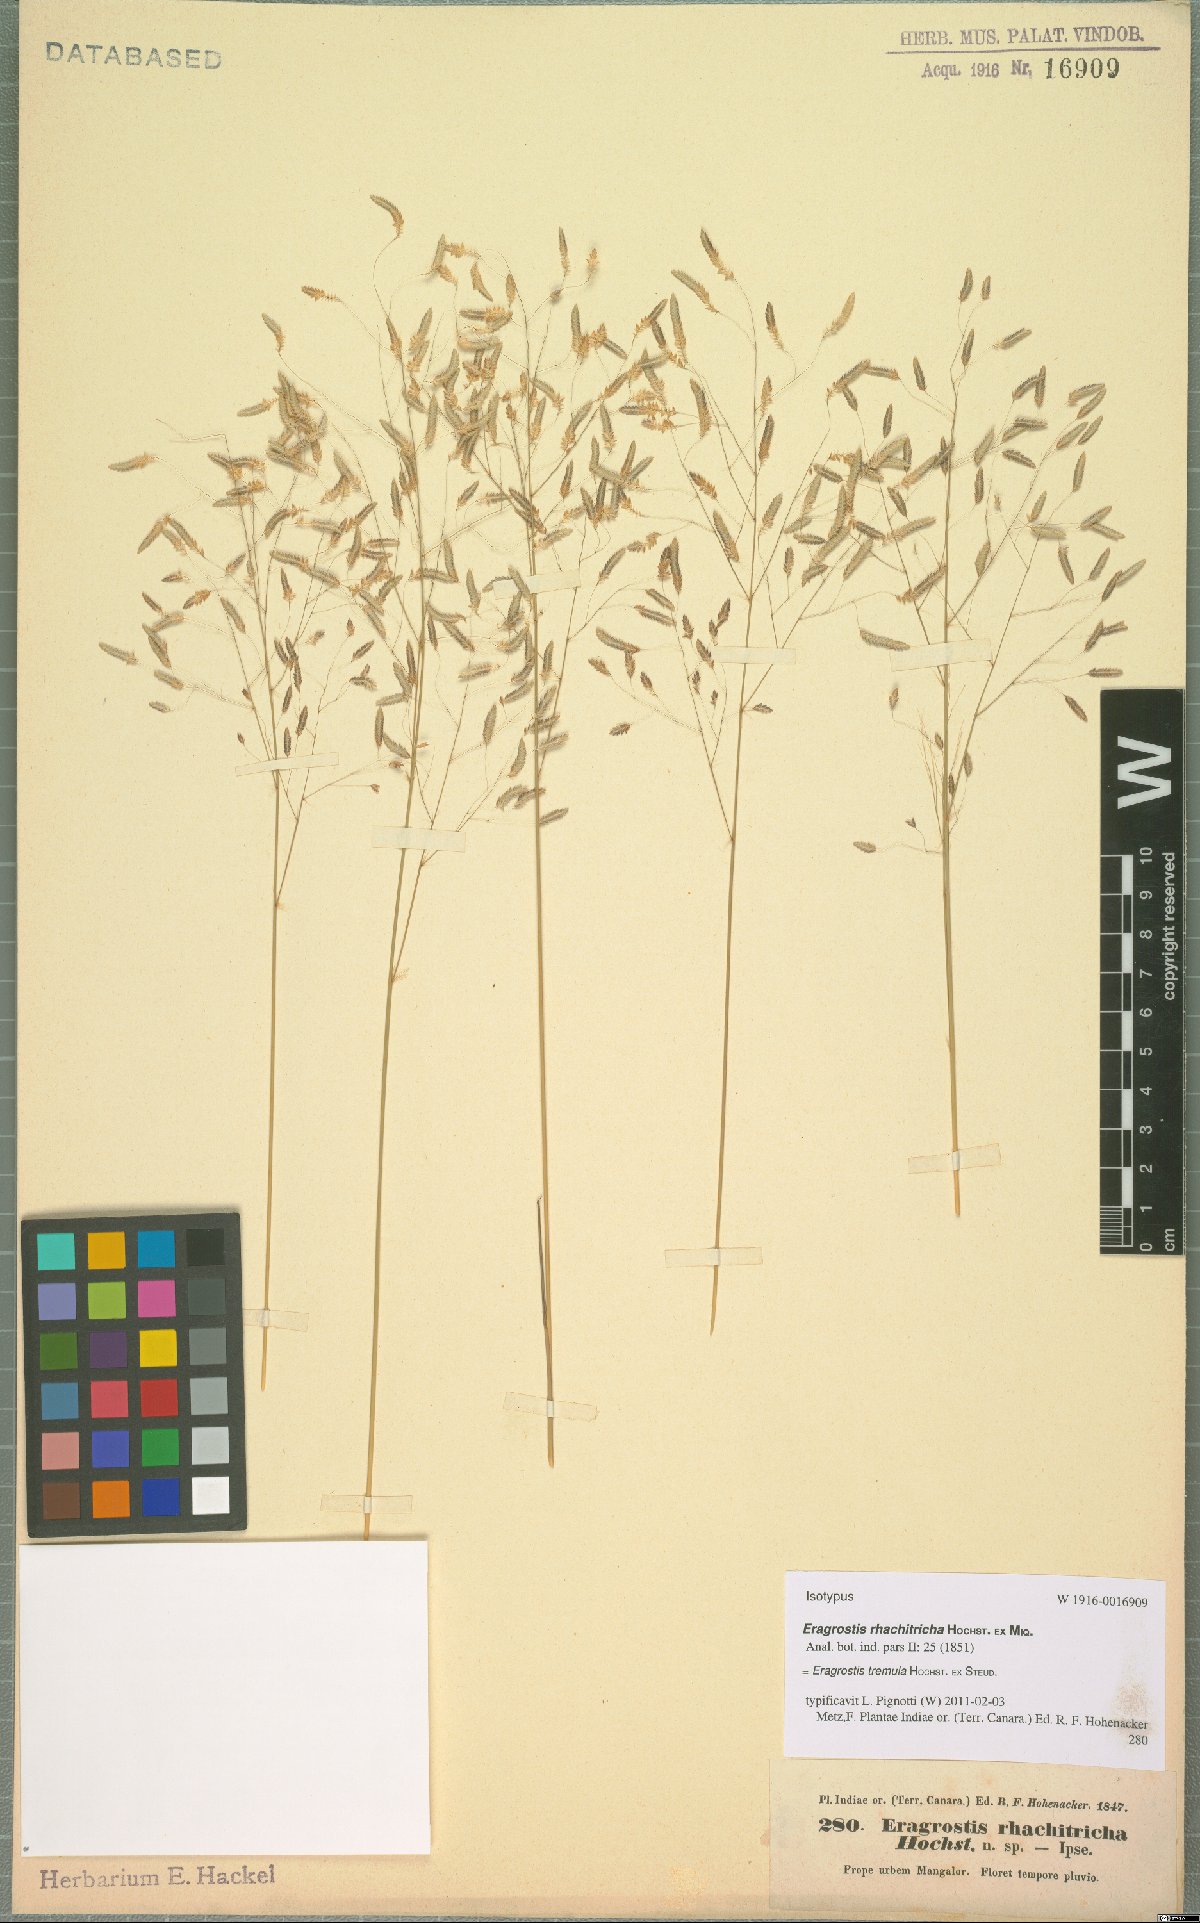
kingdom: Plantae
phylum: Tracheophyta
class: Liliopsida
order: Poales
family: Poaceae
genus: Eragrostis
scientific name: Eragrostis tremula
